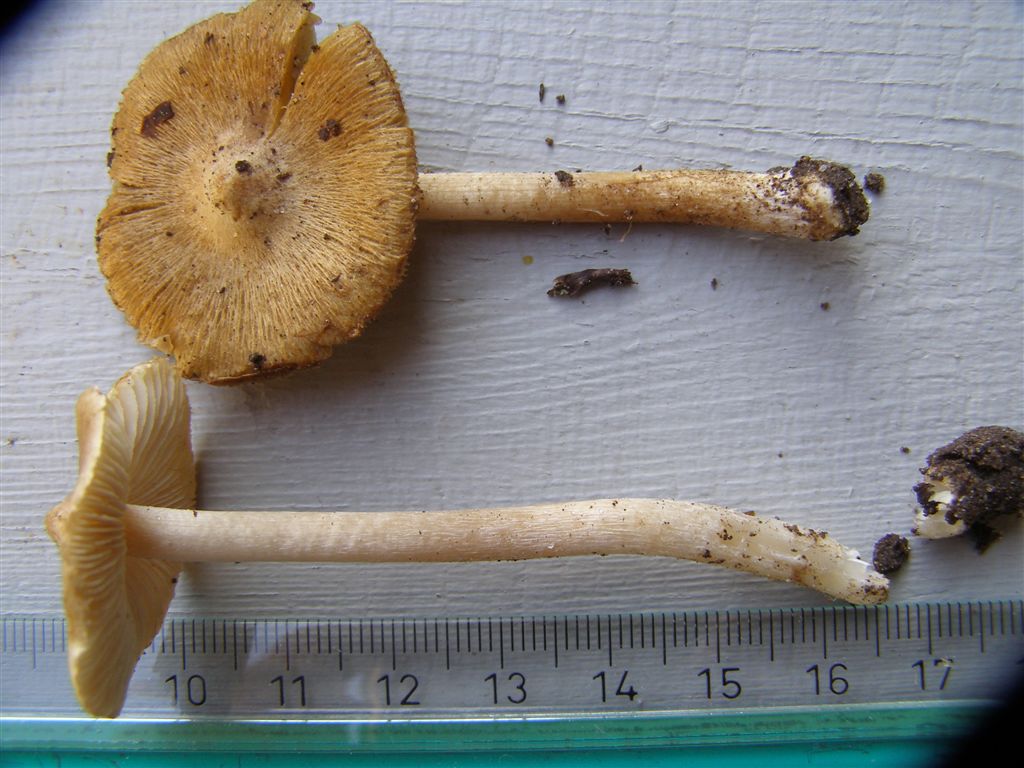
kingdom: Fungi
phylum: Basidiomycota
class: Agaricomycetes
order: Agaricales
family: Inocybaceae
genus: Pseudosperma
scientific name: Pseudosperma flavellum
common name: gul trævlhat
